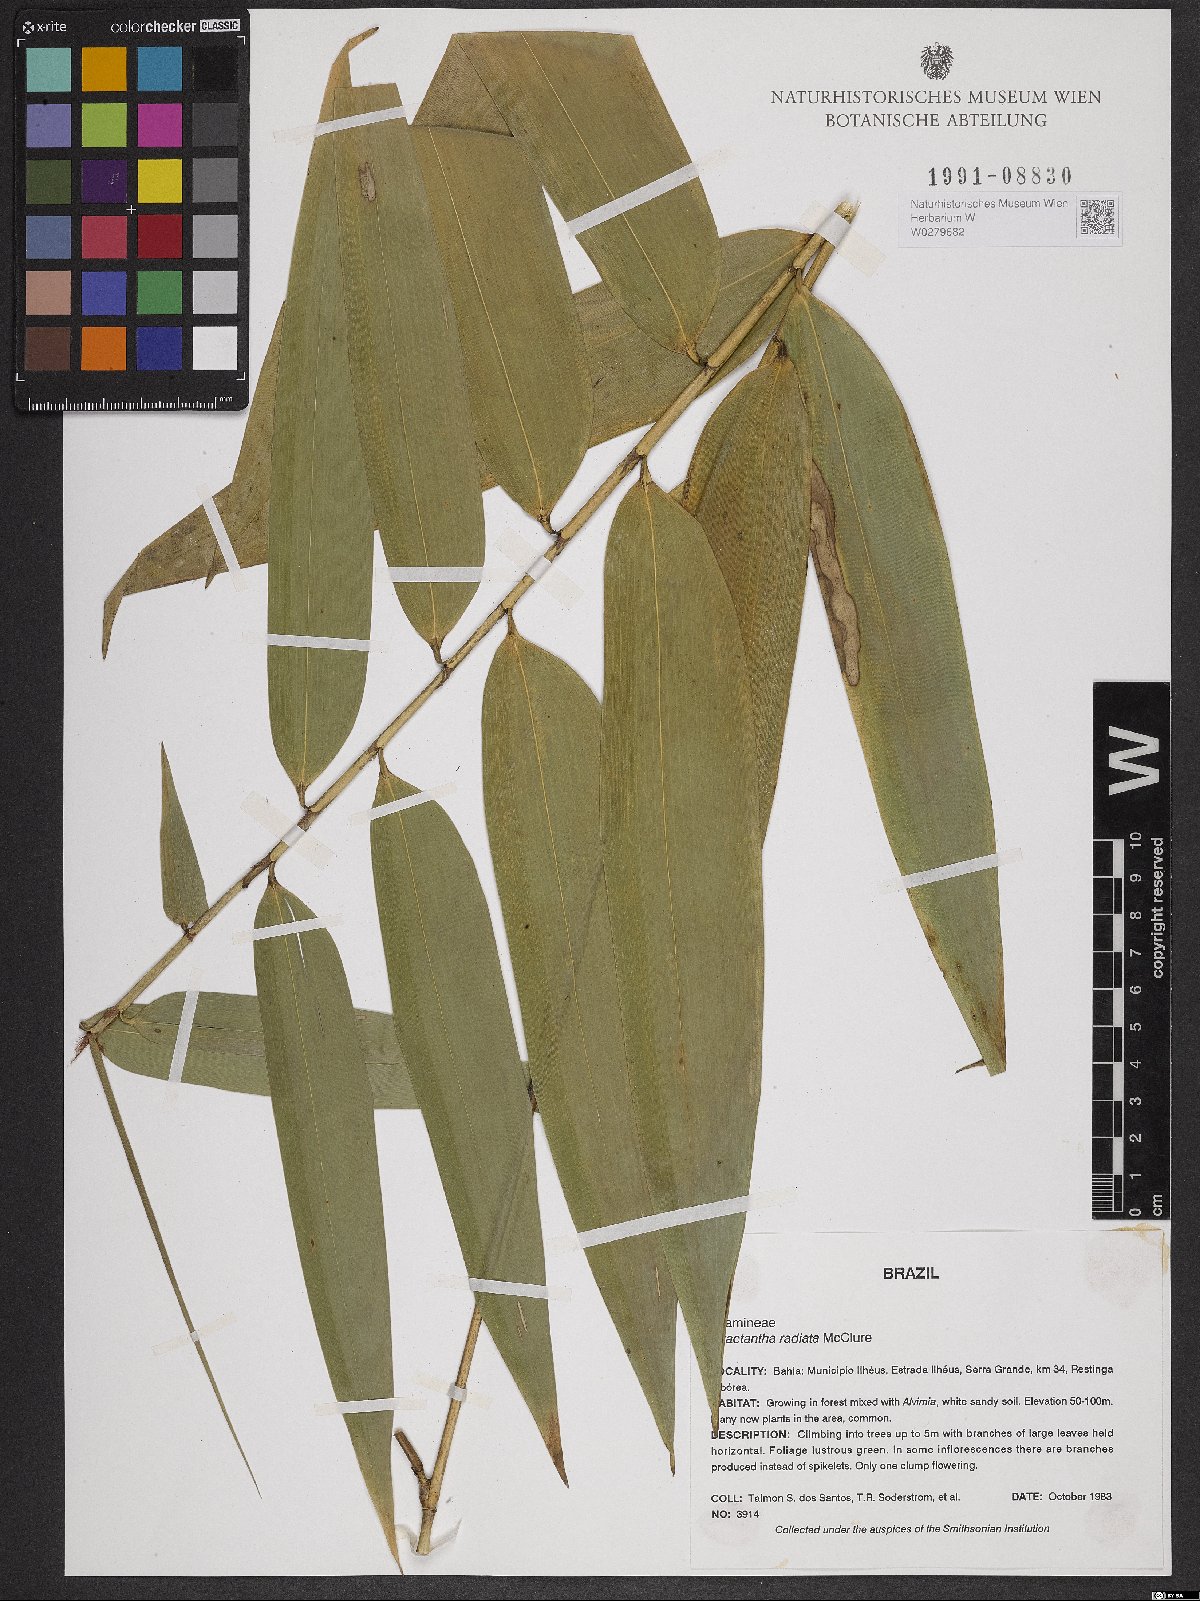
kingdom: Plantae
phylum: Tracheophyta
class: Liliopsida
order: Poales
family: Poaceae
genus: Atractantha
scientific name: Atractantha radiata
